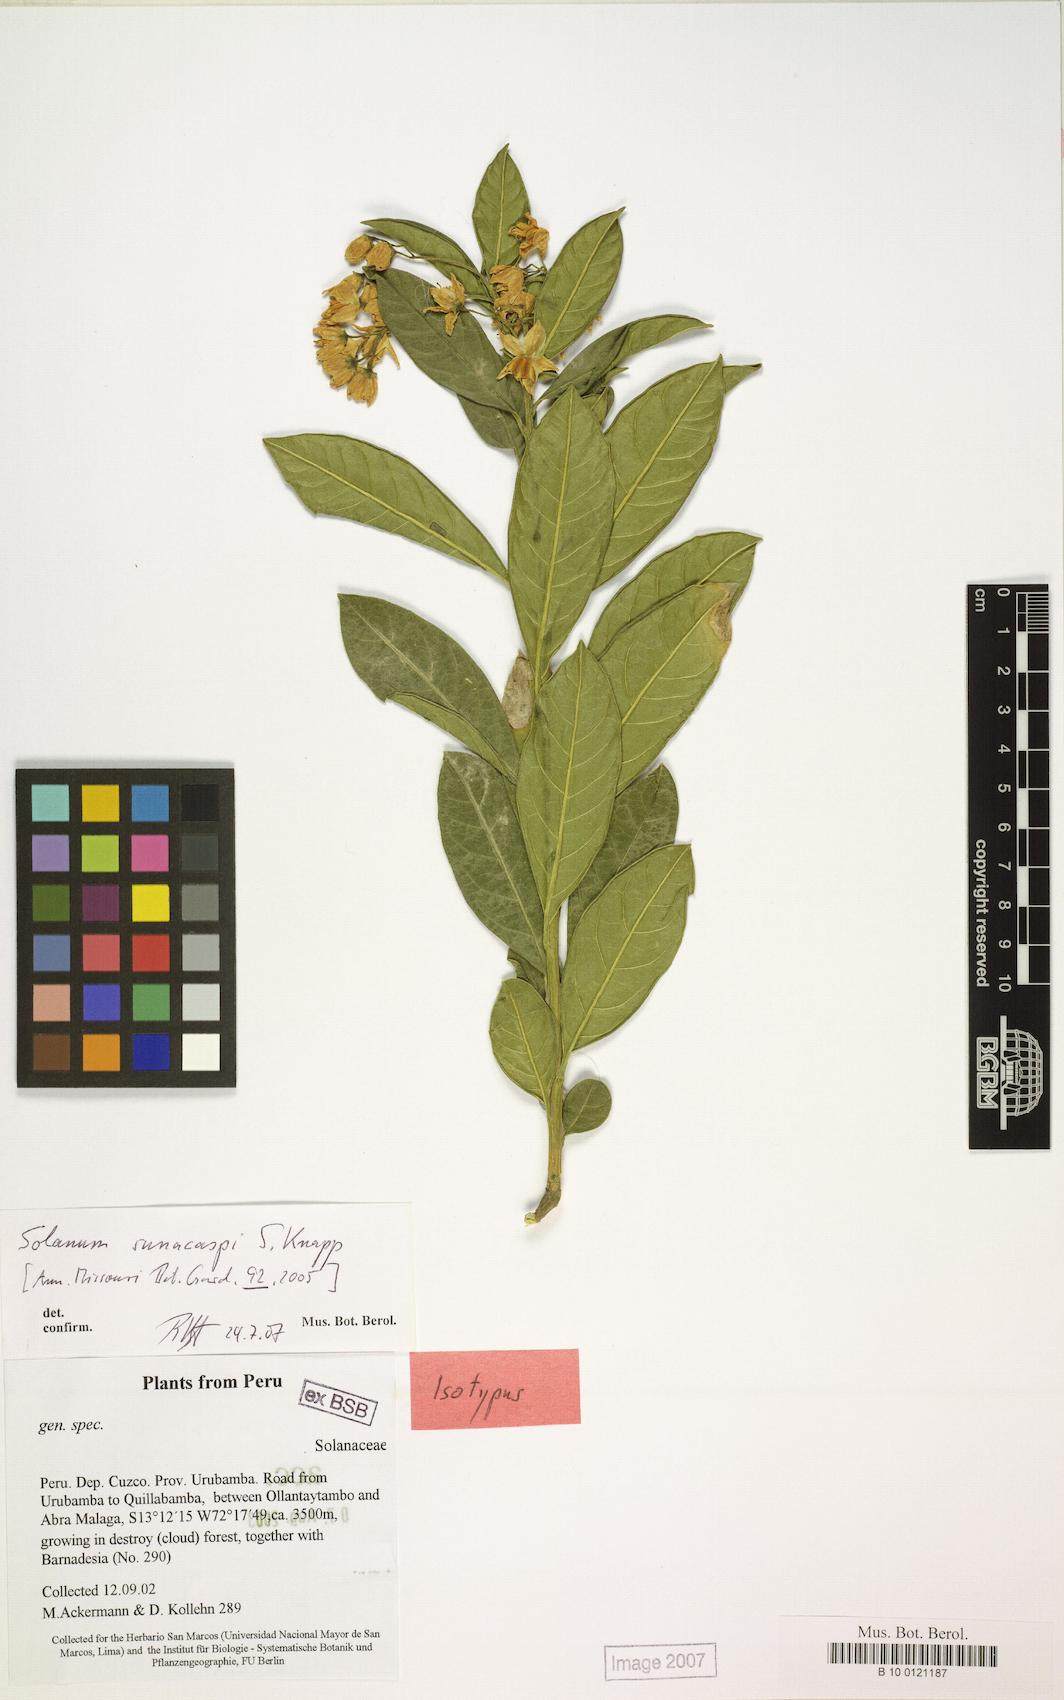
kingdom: Plantae
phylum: Tracheophyta
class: Magnoliopsida
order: Solanales
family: Solanaceae
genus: Solanum
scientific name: Solanum sumacaspi
